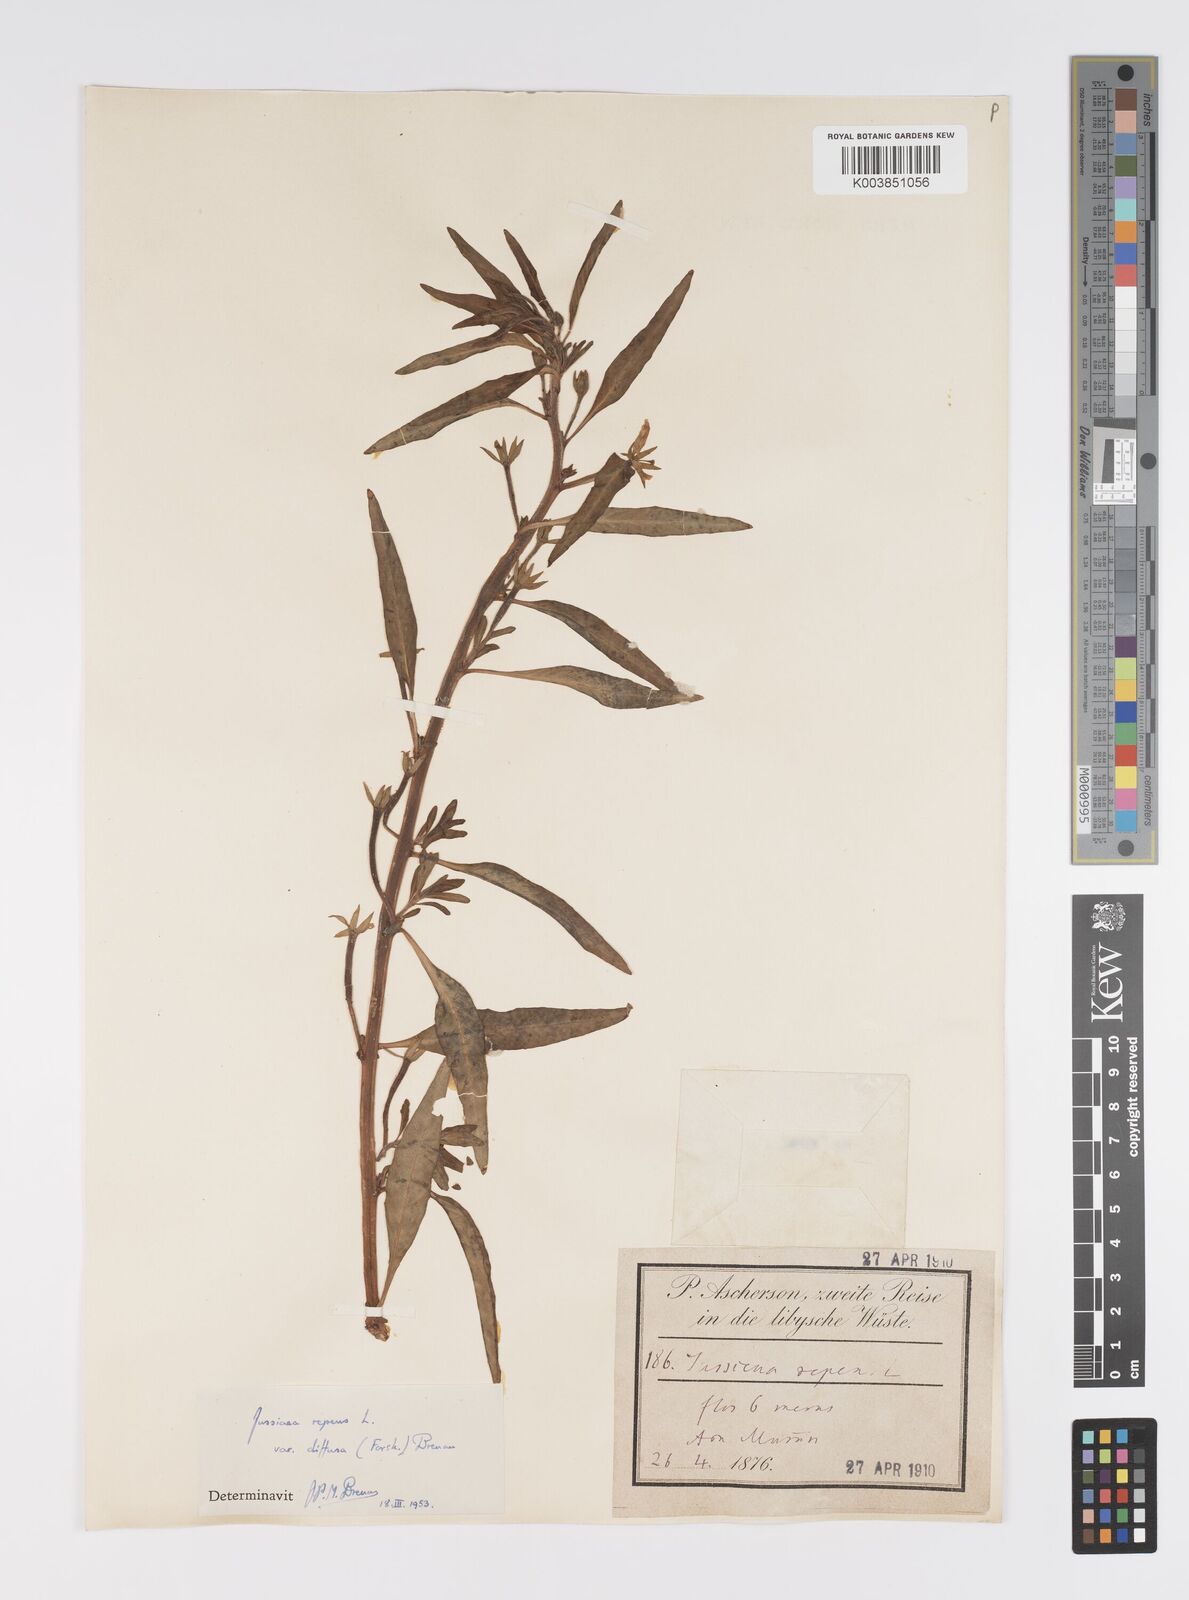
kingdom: Plantae
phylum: Tracheophyta
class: Magnoliopsida
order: Myrtales
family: Onagraceae
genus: Ludwigia
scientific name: Ludwigia adscendens
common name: Creeping water primrose
